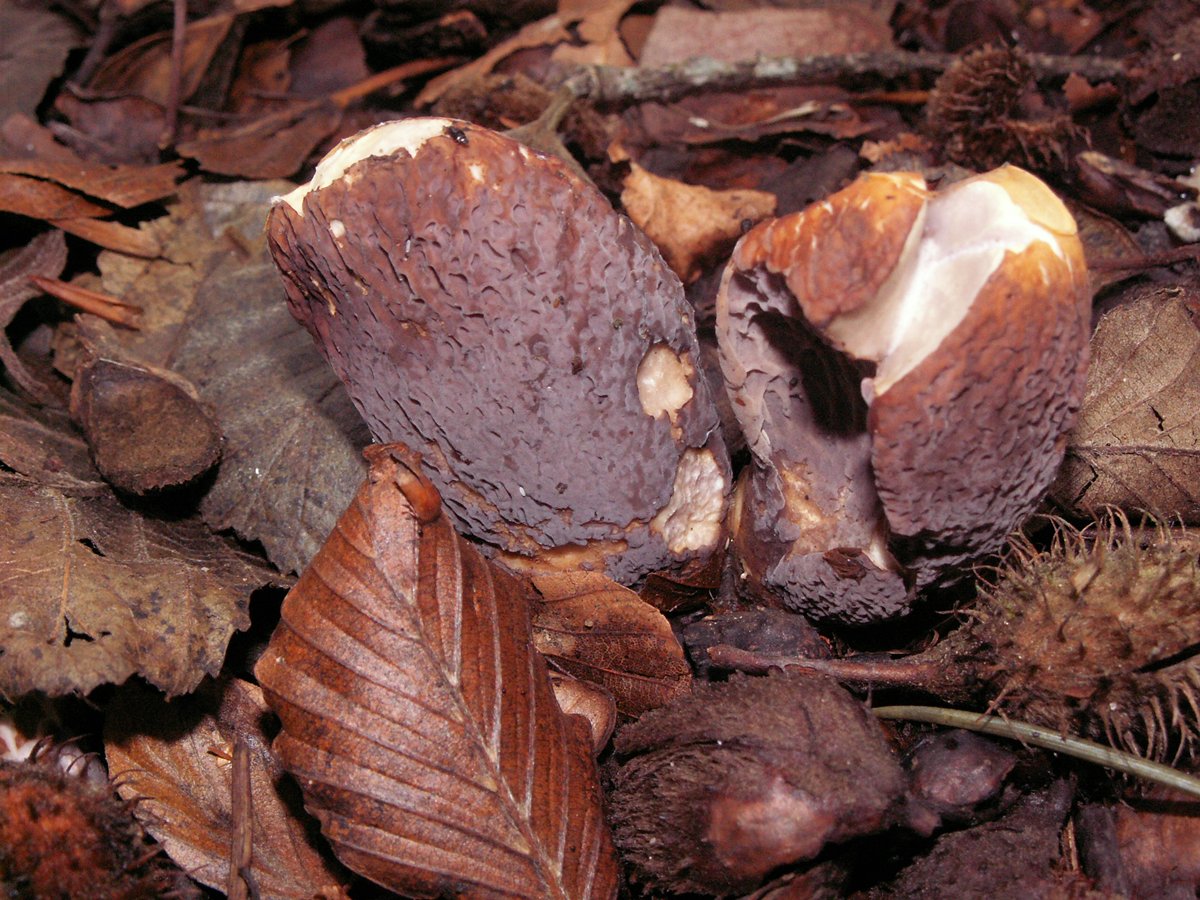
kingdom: Fungi
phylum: Basidiomycota
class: Agaricomycetes
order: Gomphales
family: Gomphaceae
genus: Gomphus
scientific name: Gomphus clavatus
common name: køllekantarel
